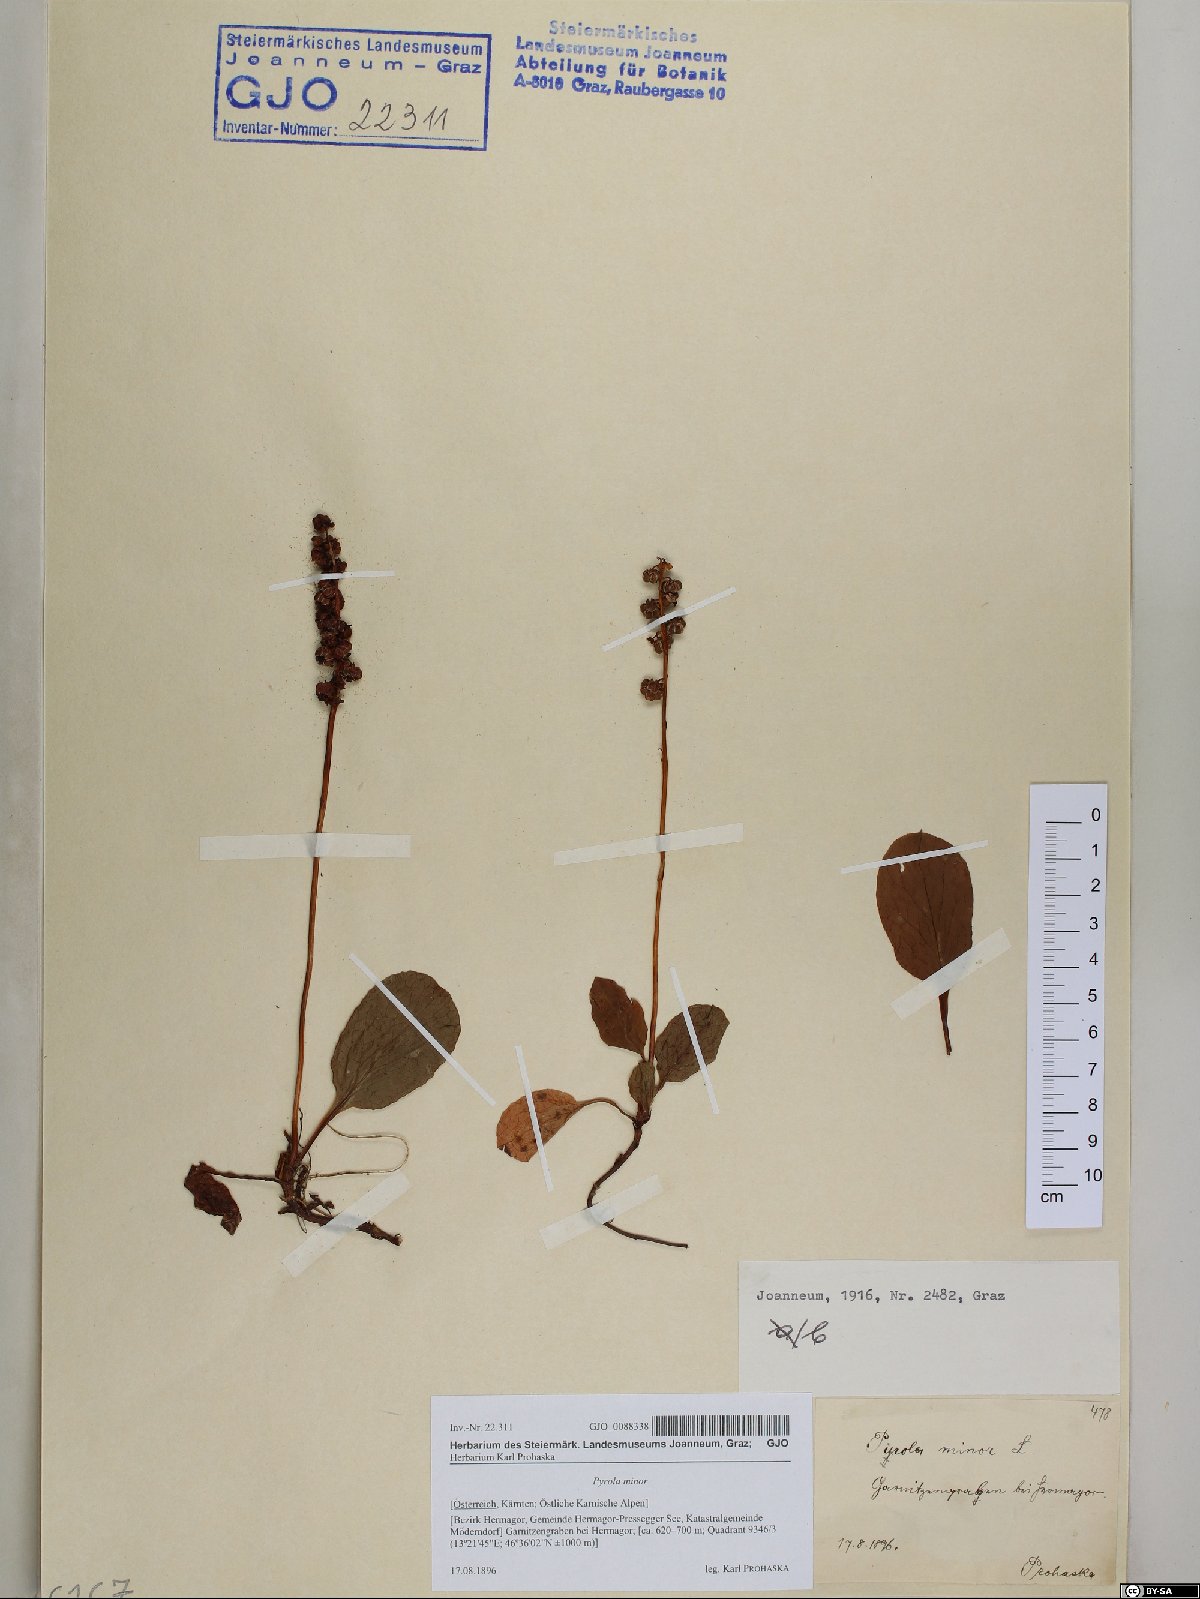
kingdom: Plantae
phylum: Tracheophyta
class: Magnoliopsida
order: Ericales
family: Ericaceae
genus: Pyrola
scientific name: Pyrola minor
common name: Common wintergreen
